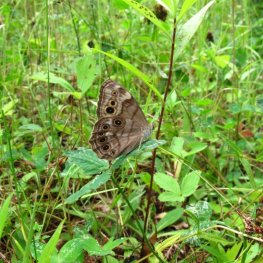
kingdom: Animalia
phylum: Arthropoda
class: Insecta
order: Lepidoptera
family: Nymphalidae
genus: Lethe
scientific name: Lethe anthedon
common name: Northern Pearly-Eye
